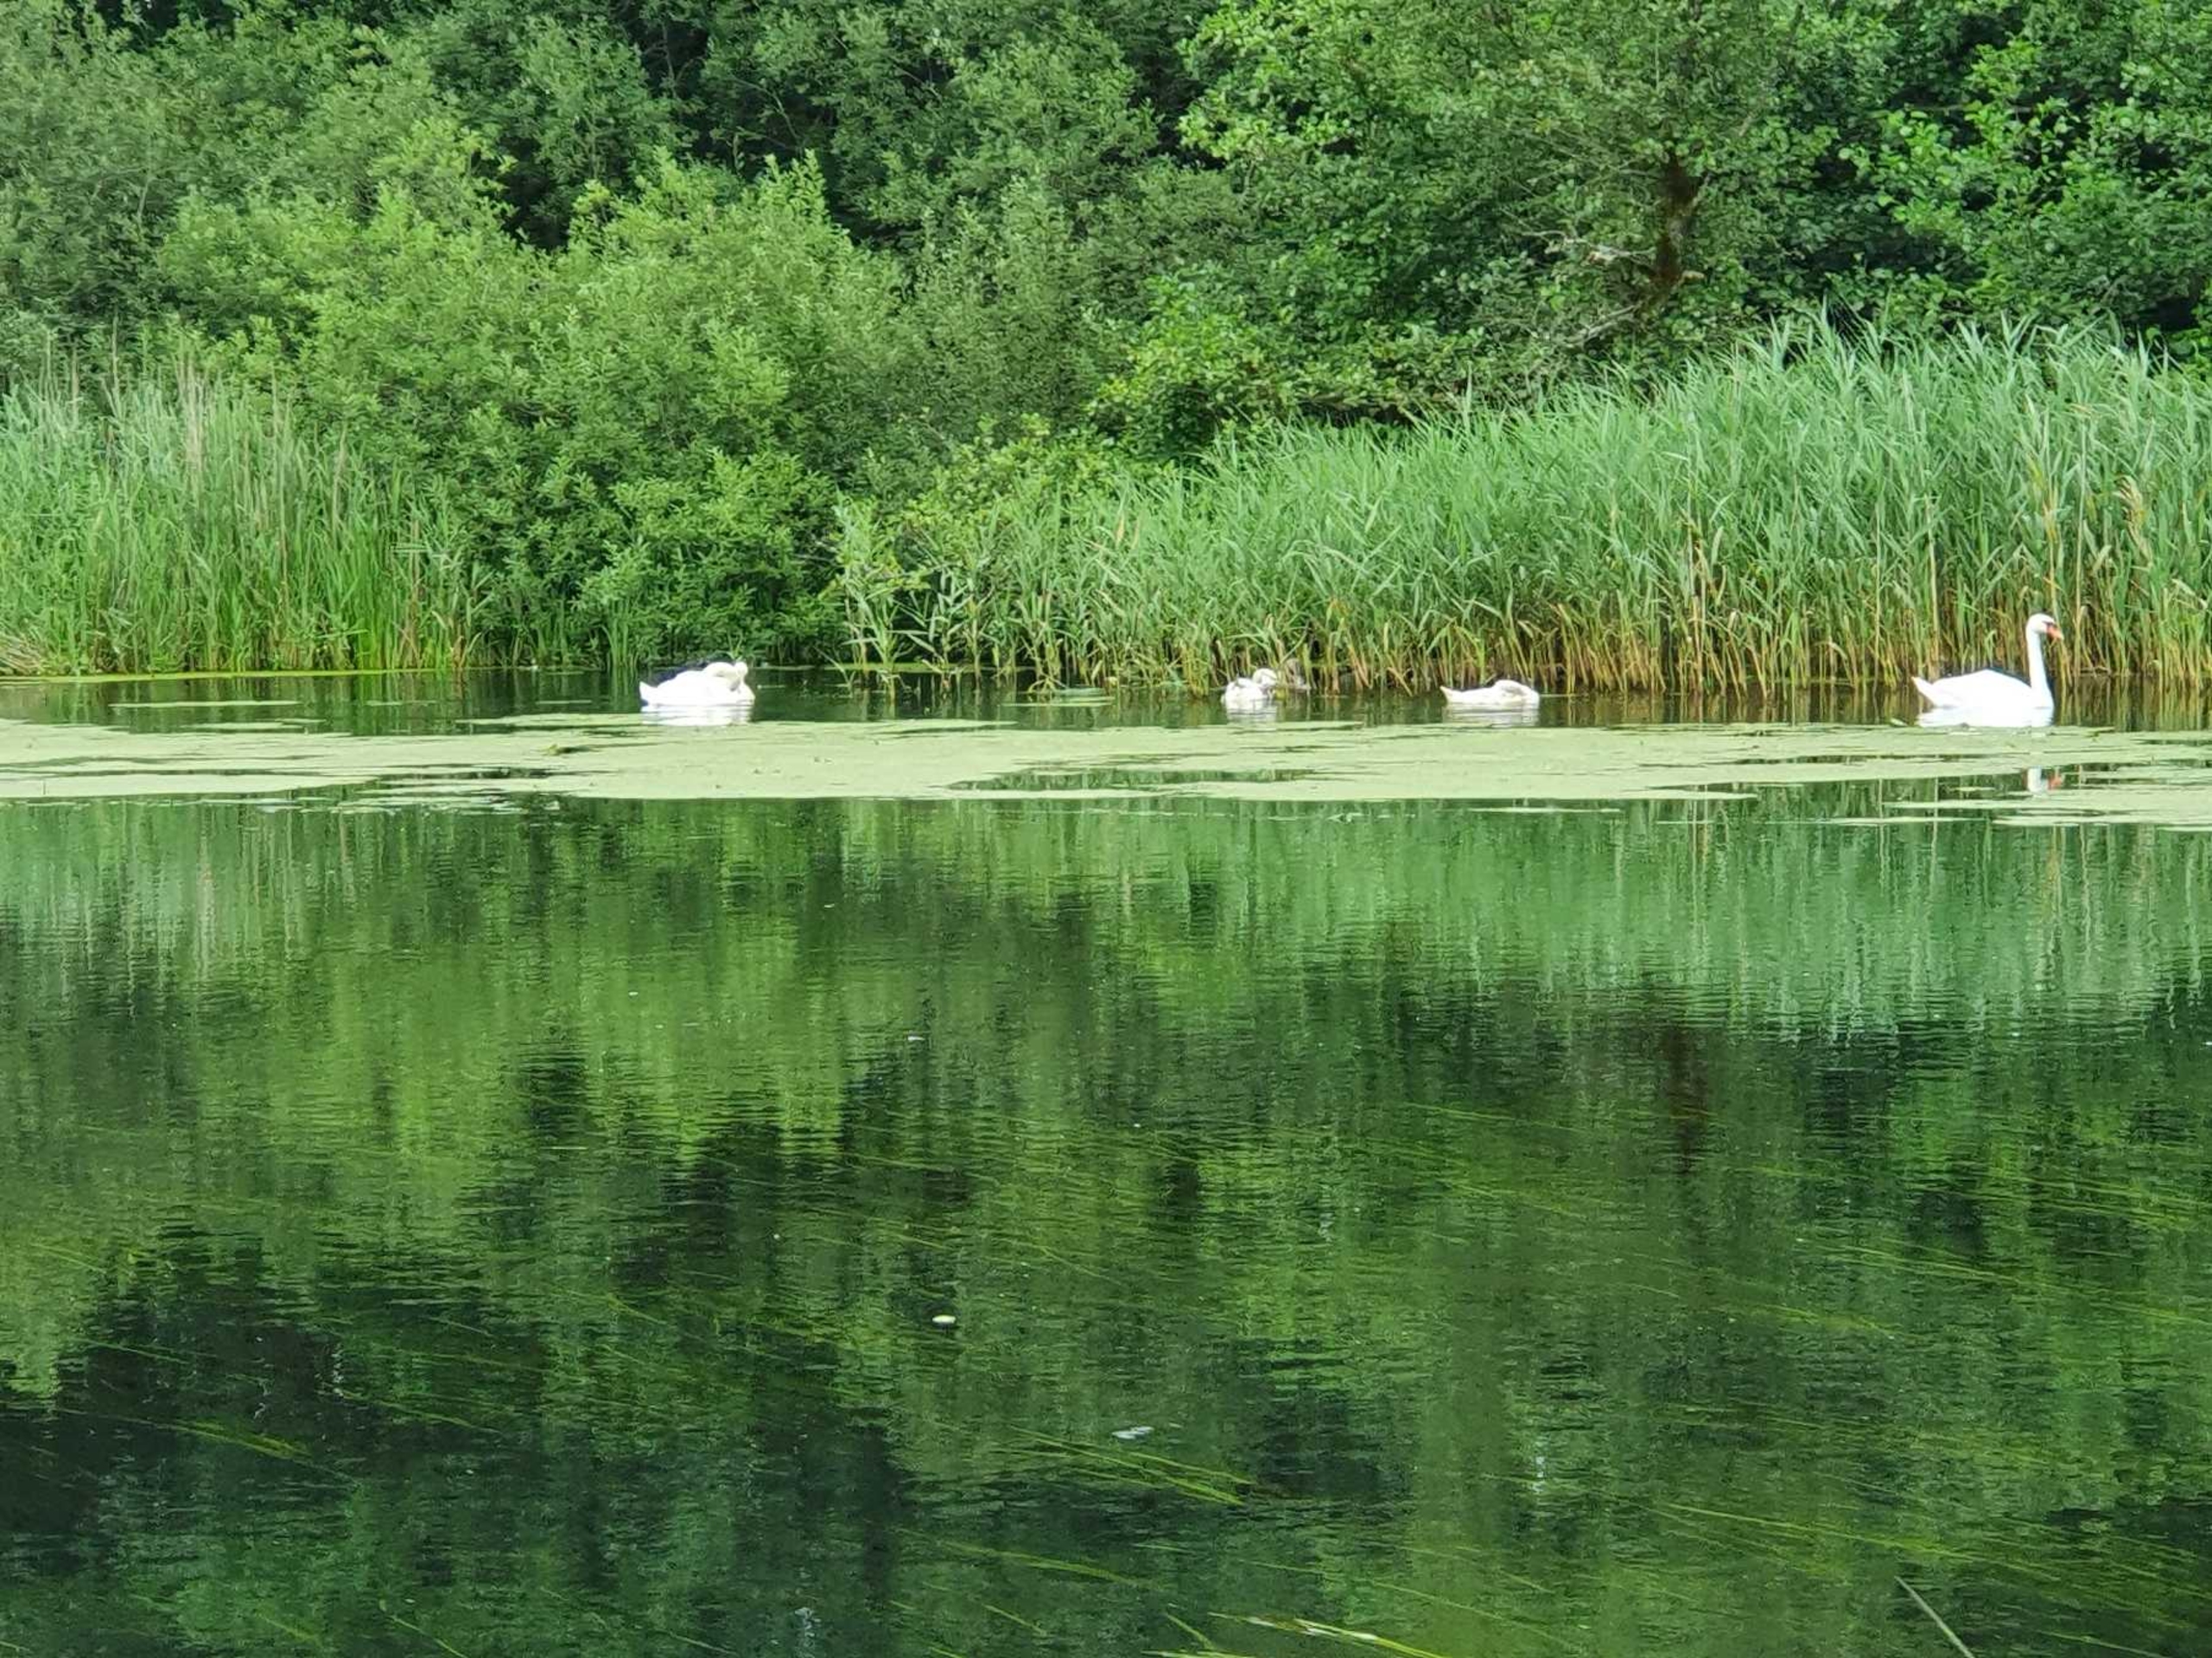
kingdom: Animalia
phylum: Chordata
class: Aves
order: Anseriformes
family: Anatidae
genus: Cygnus
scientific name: Cygnus olor
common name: Knopsvane
